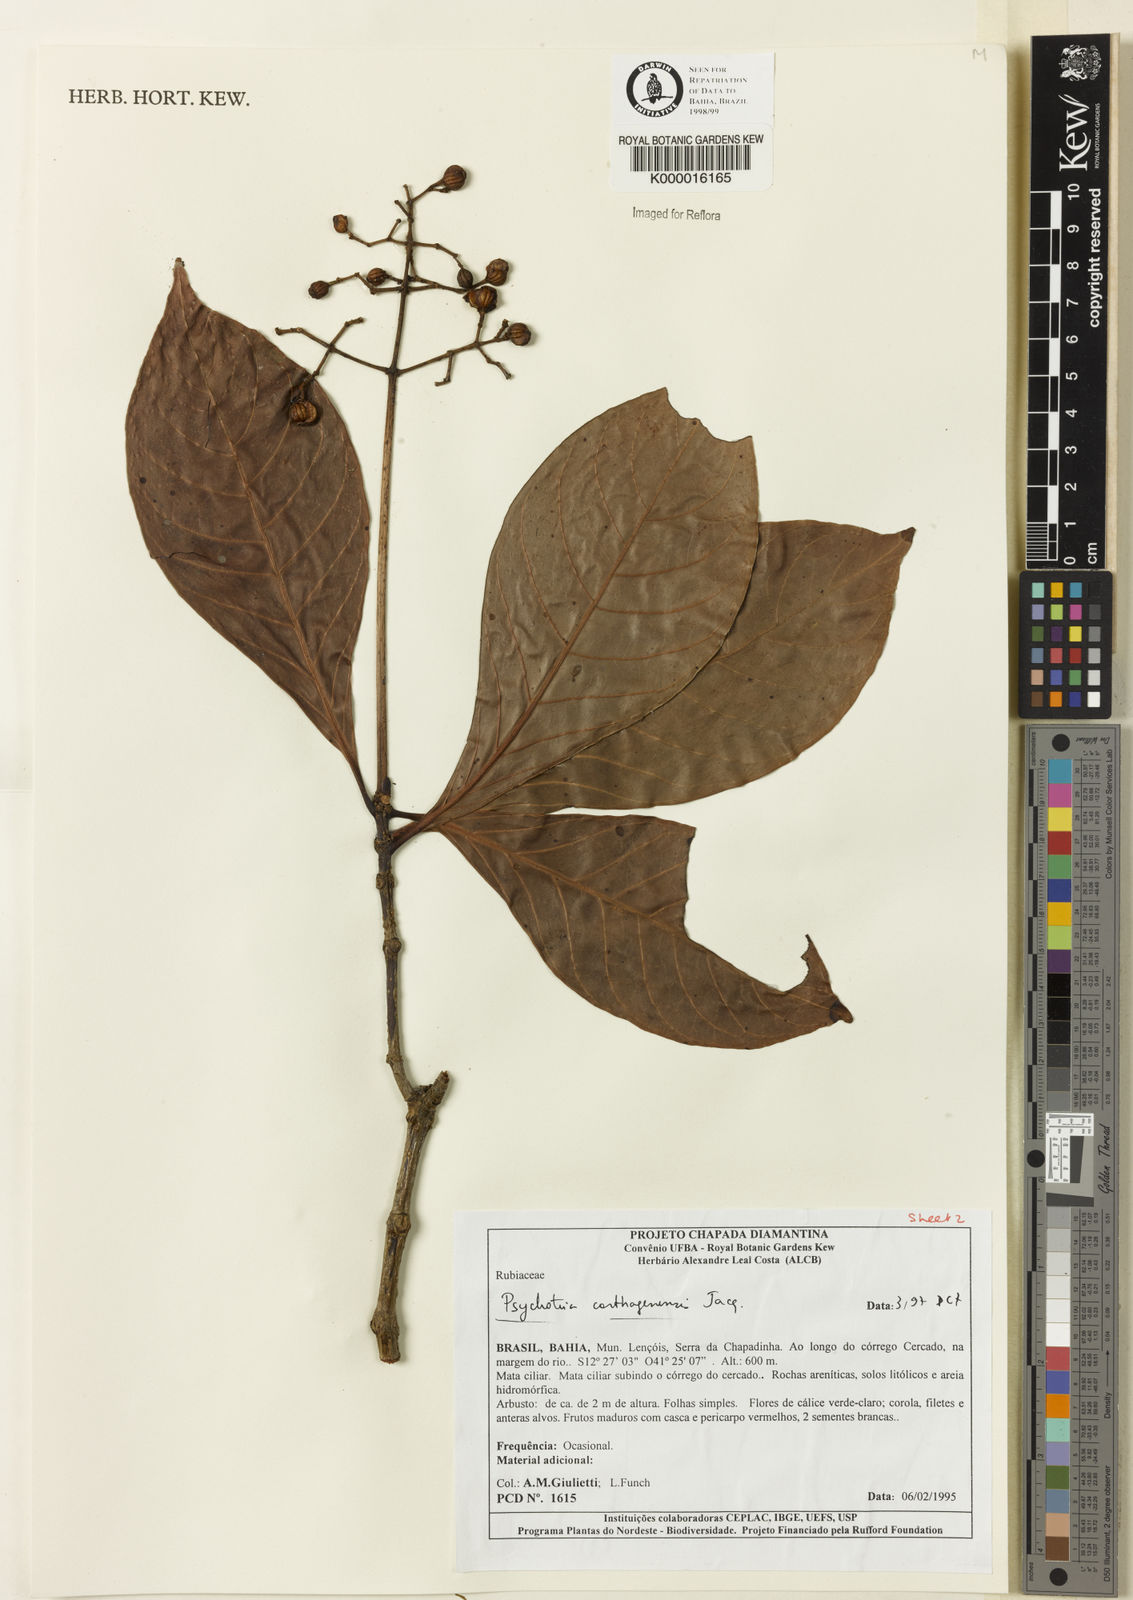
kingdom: Plantae
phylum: Tracheophyta
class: Magnoliopsida
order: Gentianales
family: Rubiaceae
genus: Psychotria
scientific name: Psychotria carthagenensis
